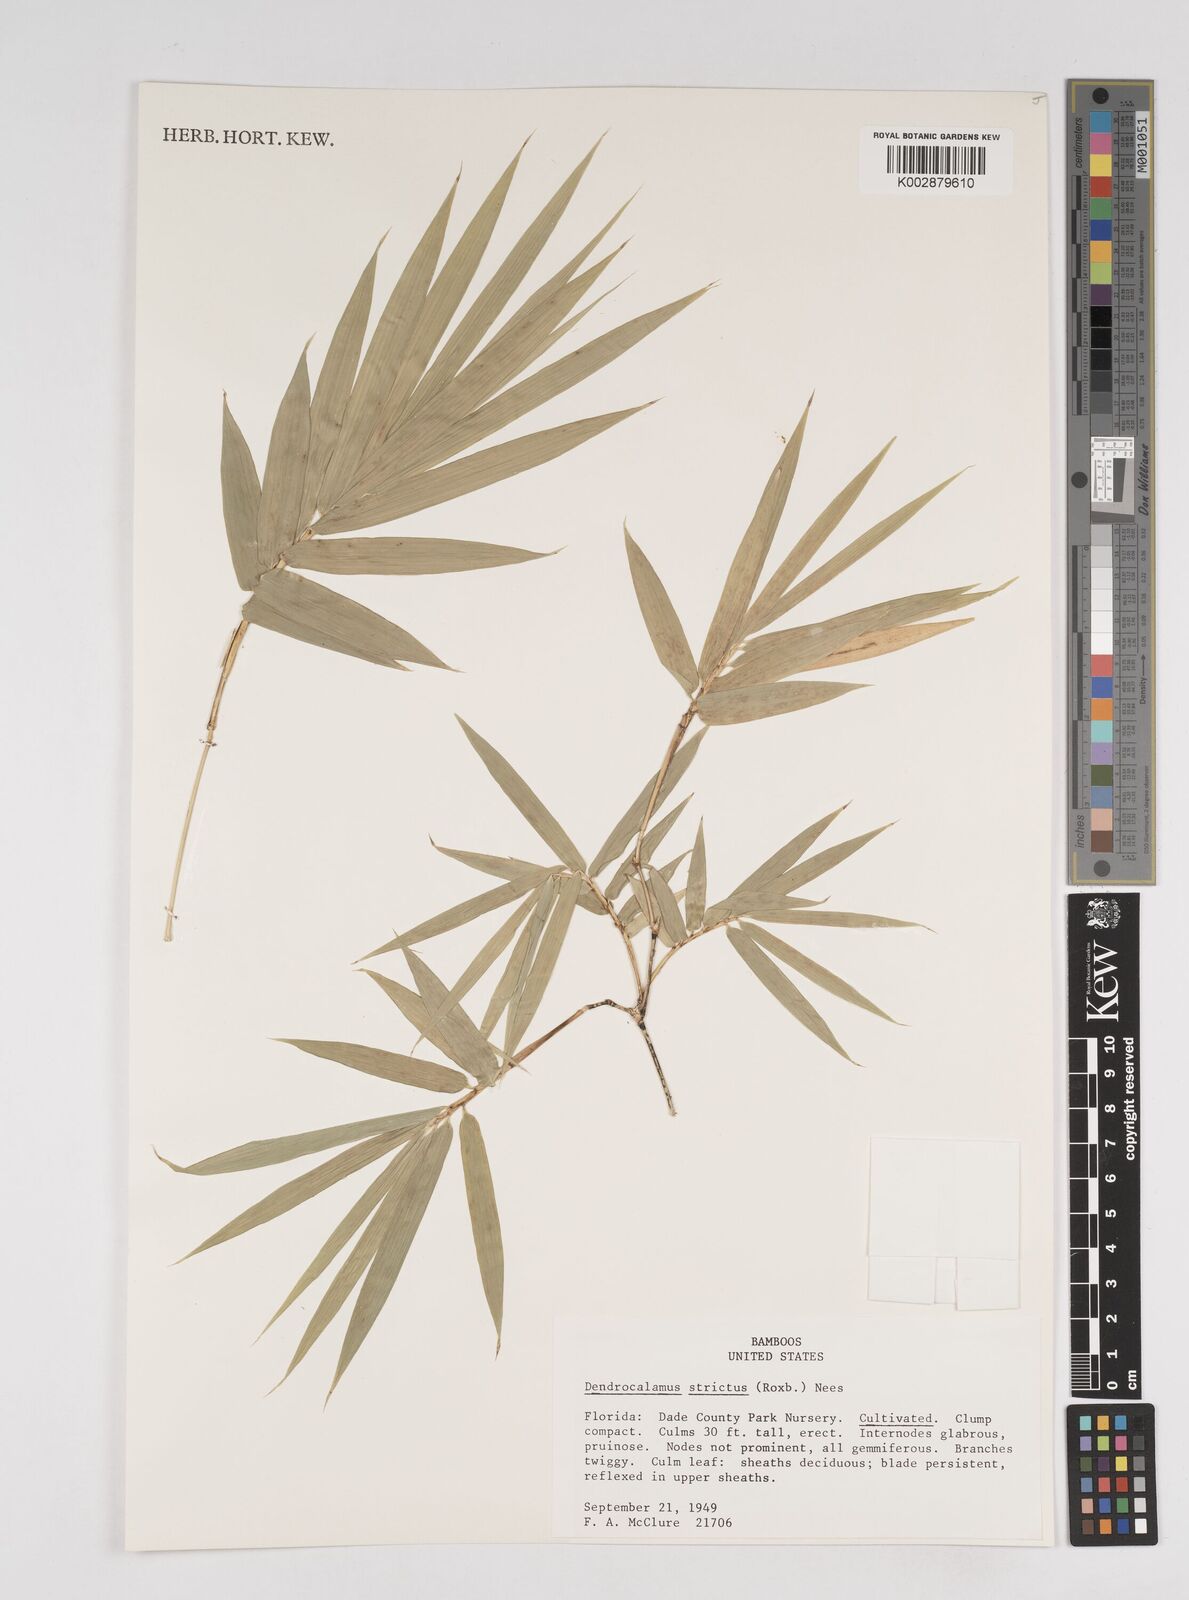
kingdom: Plantae
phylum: Tracheophyta
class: Liliopsida
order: Poales
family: Poaceae
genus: Dendrocalamus
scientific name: Dendrocalamus strictus
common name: Male bamboo
